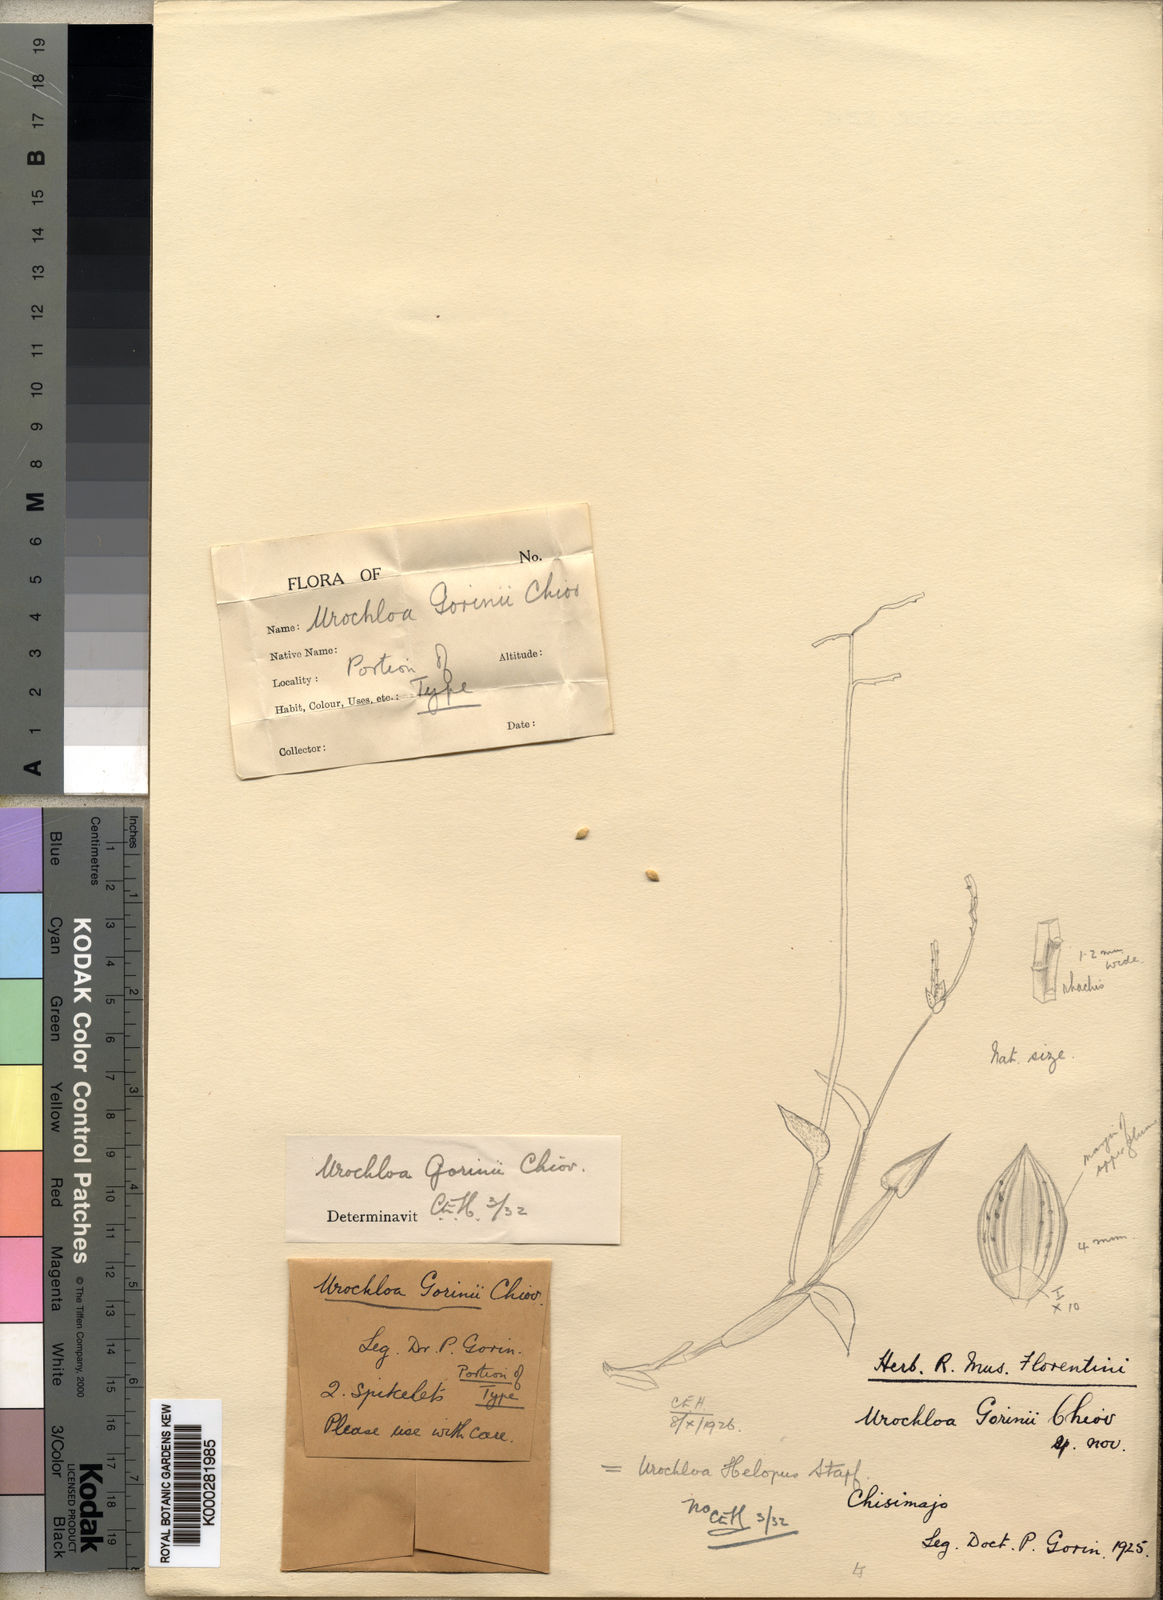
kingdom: Plantae
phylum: Tracheophyta
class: Liliopsida
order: Poales
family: Poaceae
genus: Urochloa
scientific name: Urochloa rudis
